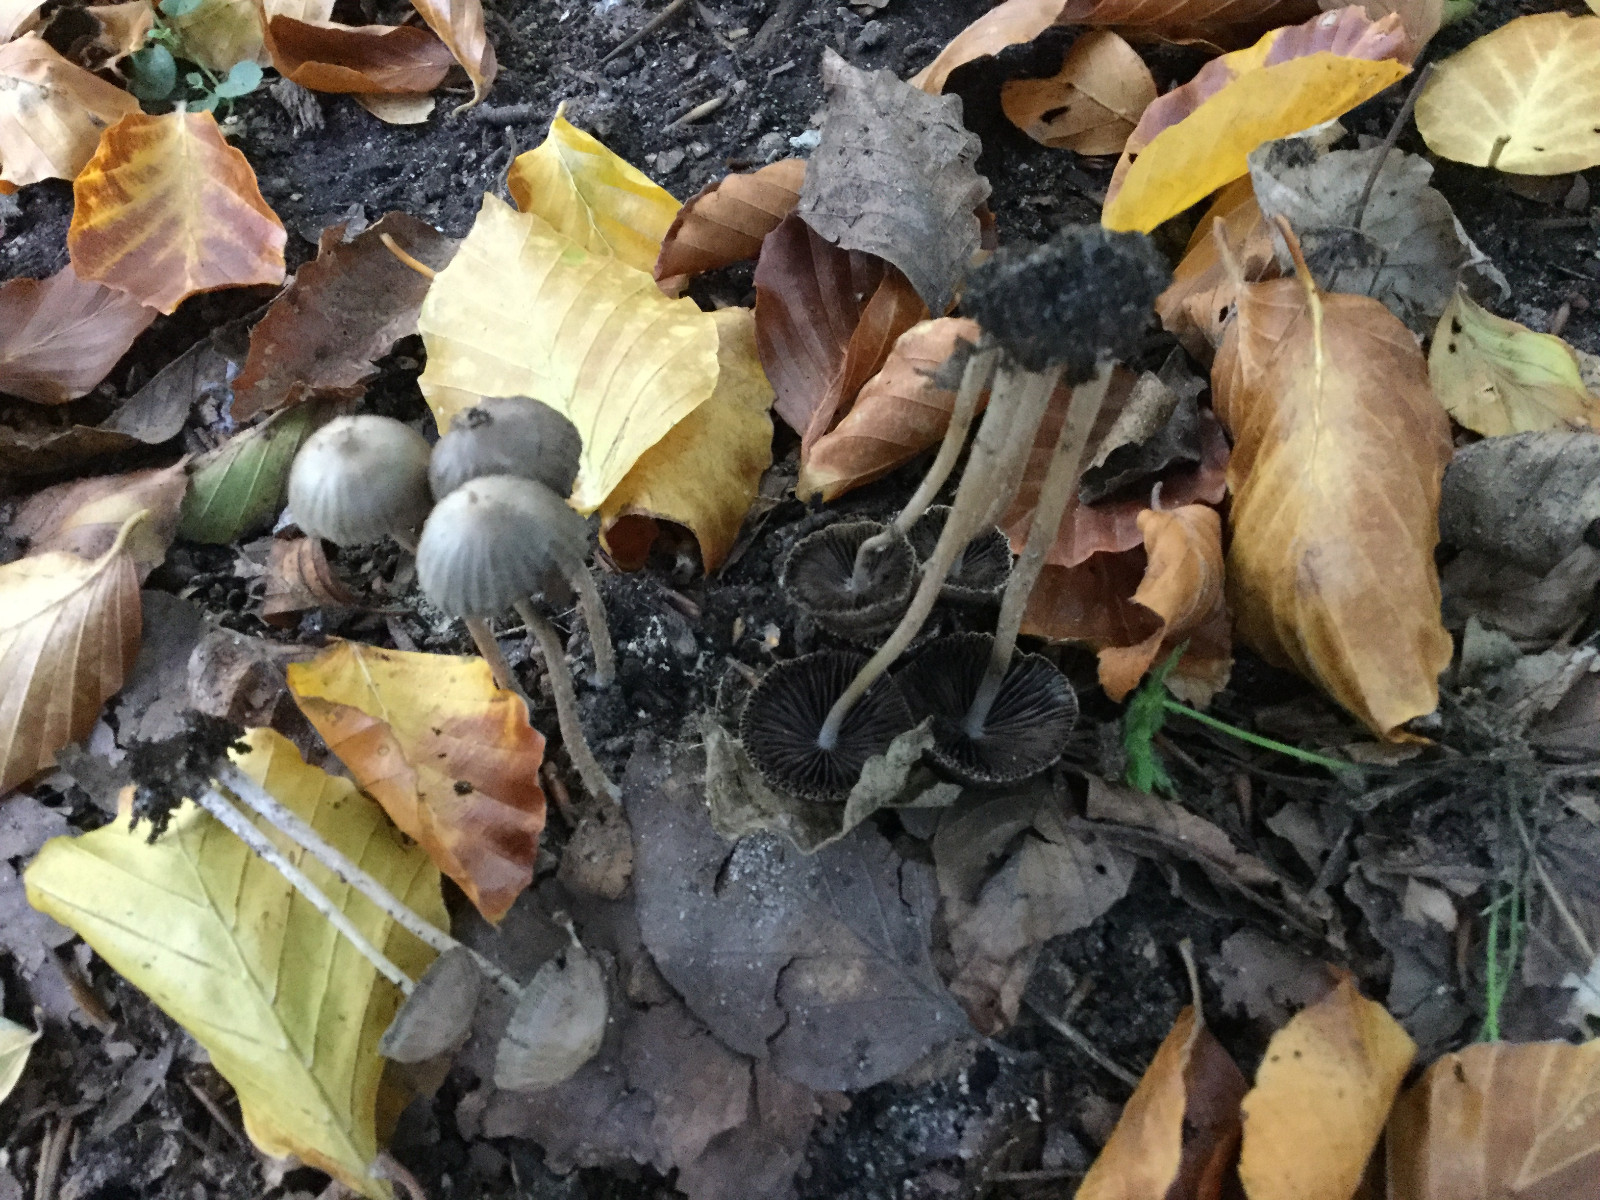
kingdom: Fungi
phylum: Basidiomycota
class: Agaricomycetes
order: Agaricales
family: Psathyrellaceae
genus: Psathyrella
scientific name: Psathyrella microrhiza
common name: rod-mørkhat
